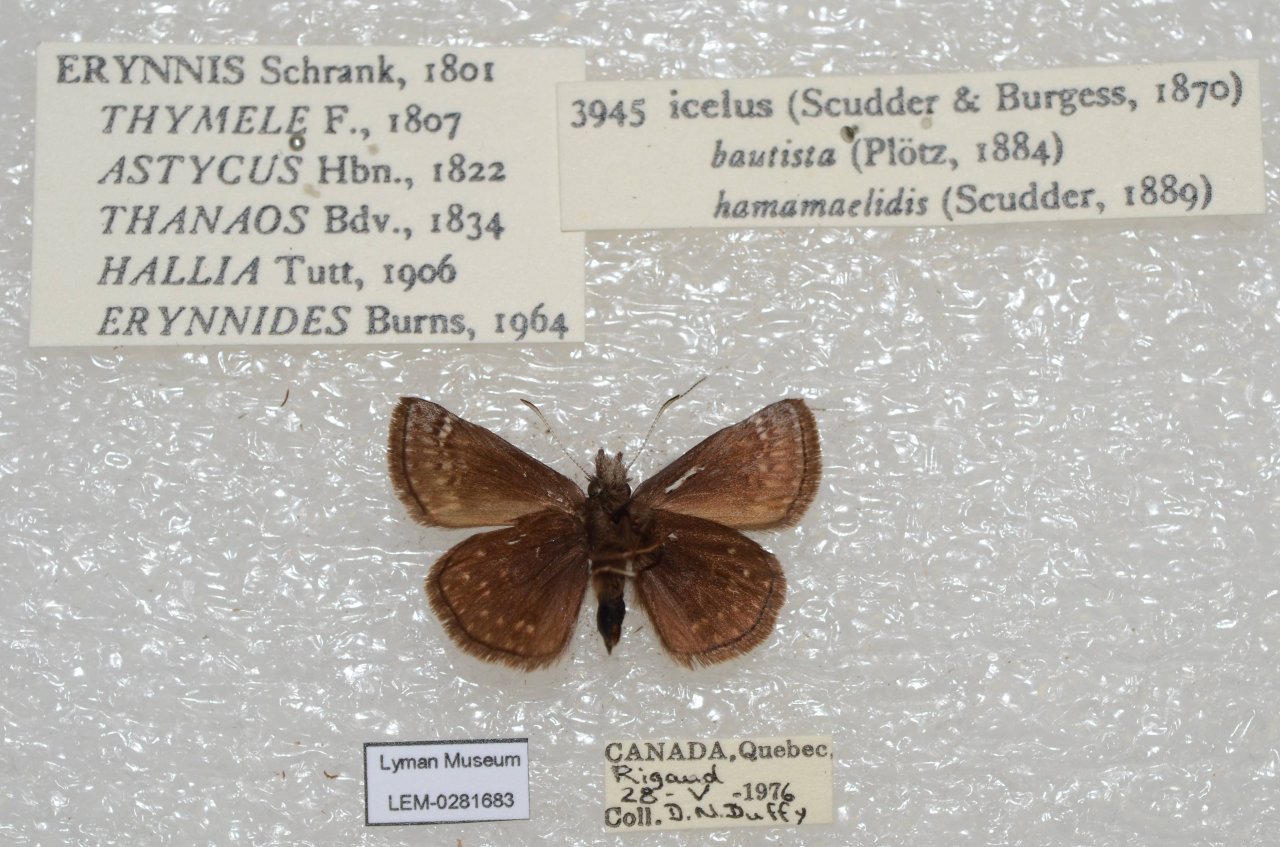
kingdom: Animalia
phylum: Arthropoda
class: Insecta
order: Lepidoptera
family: Hesperiidae
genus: Erynnis
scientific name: Erynnis icelus
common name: Dreamy Duskywing
